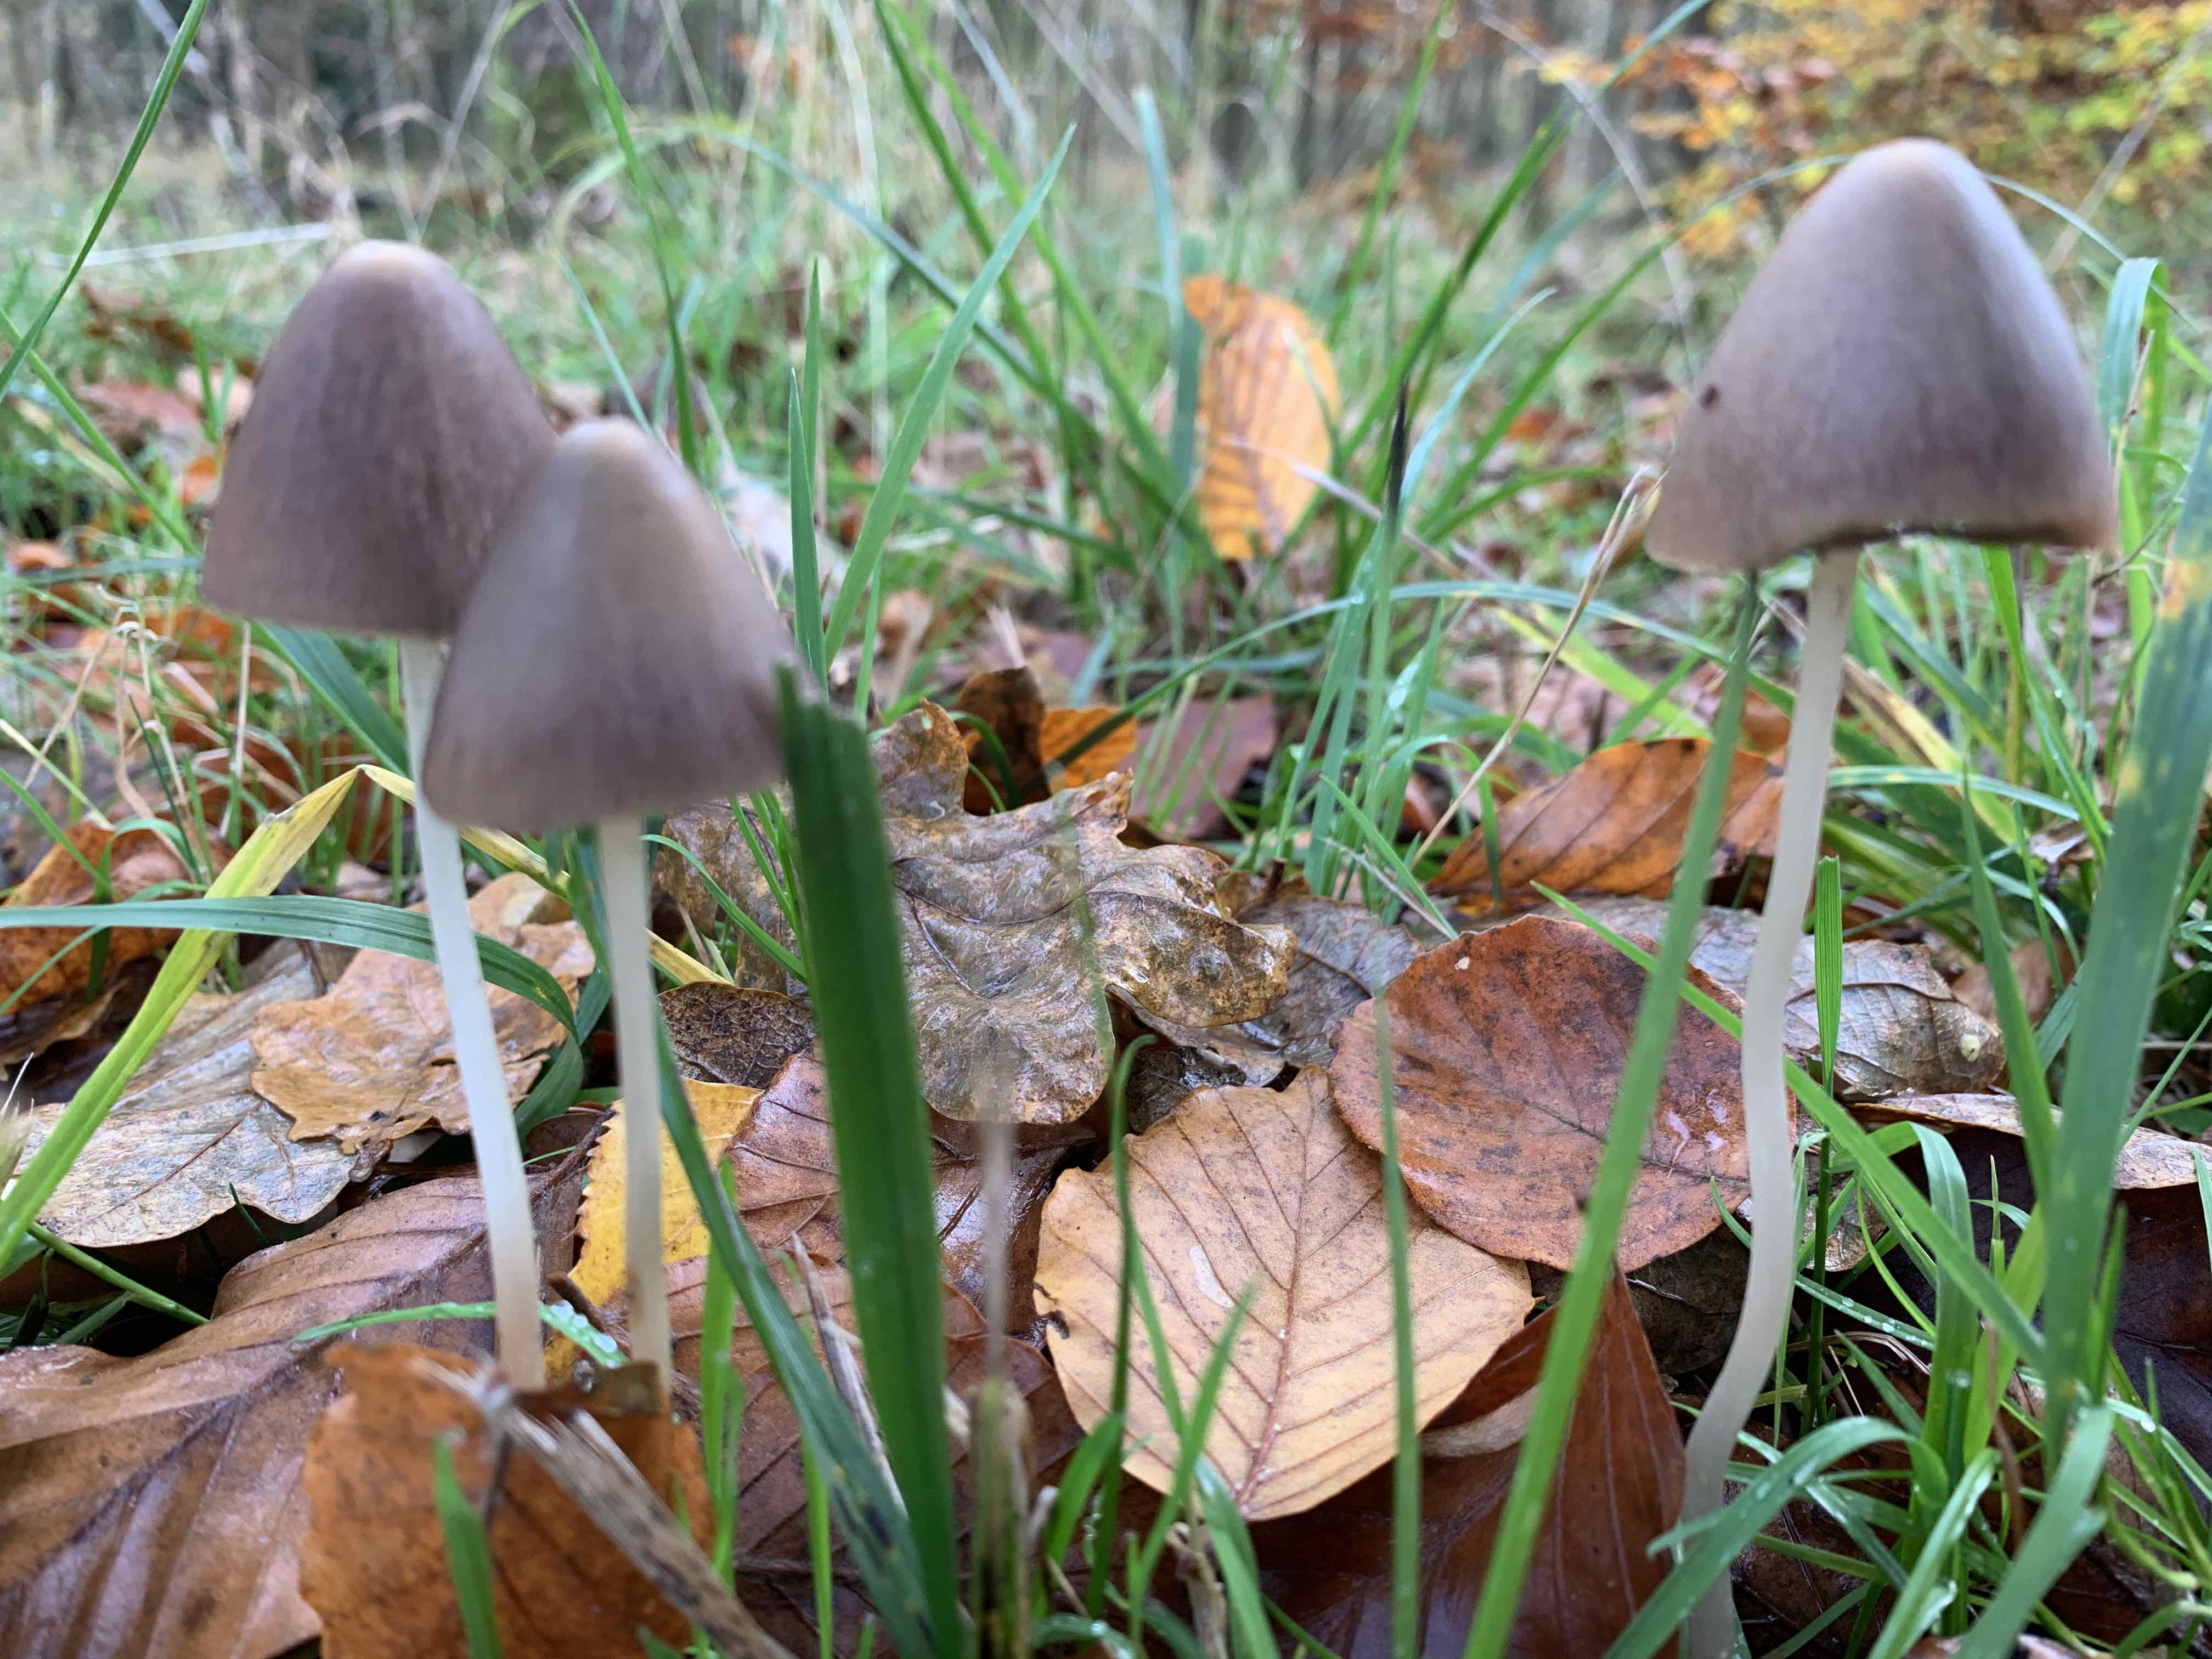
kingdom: Fungi
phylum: Basidiomycota
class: Agaricomycetes
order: Agaricales
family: Psathyrellaceae
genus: Parasola
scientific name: Parasola conopilea
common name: kegle-hjulhat
